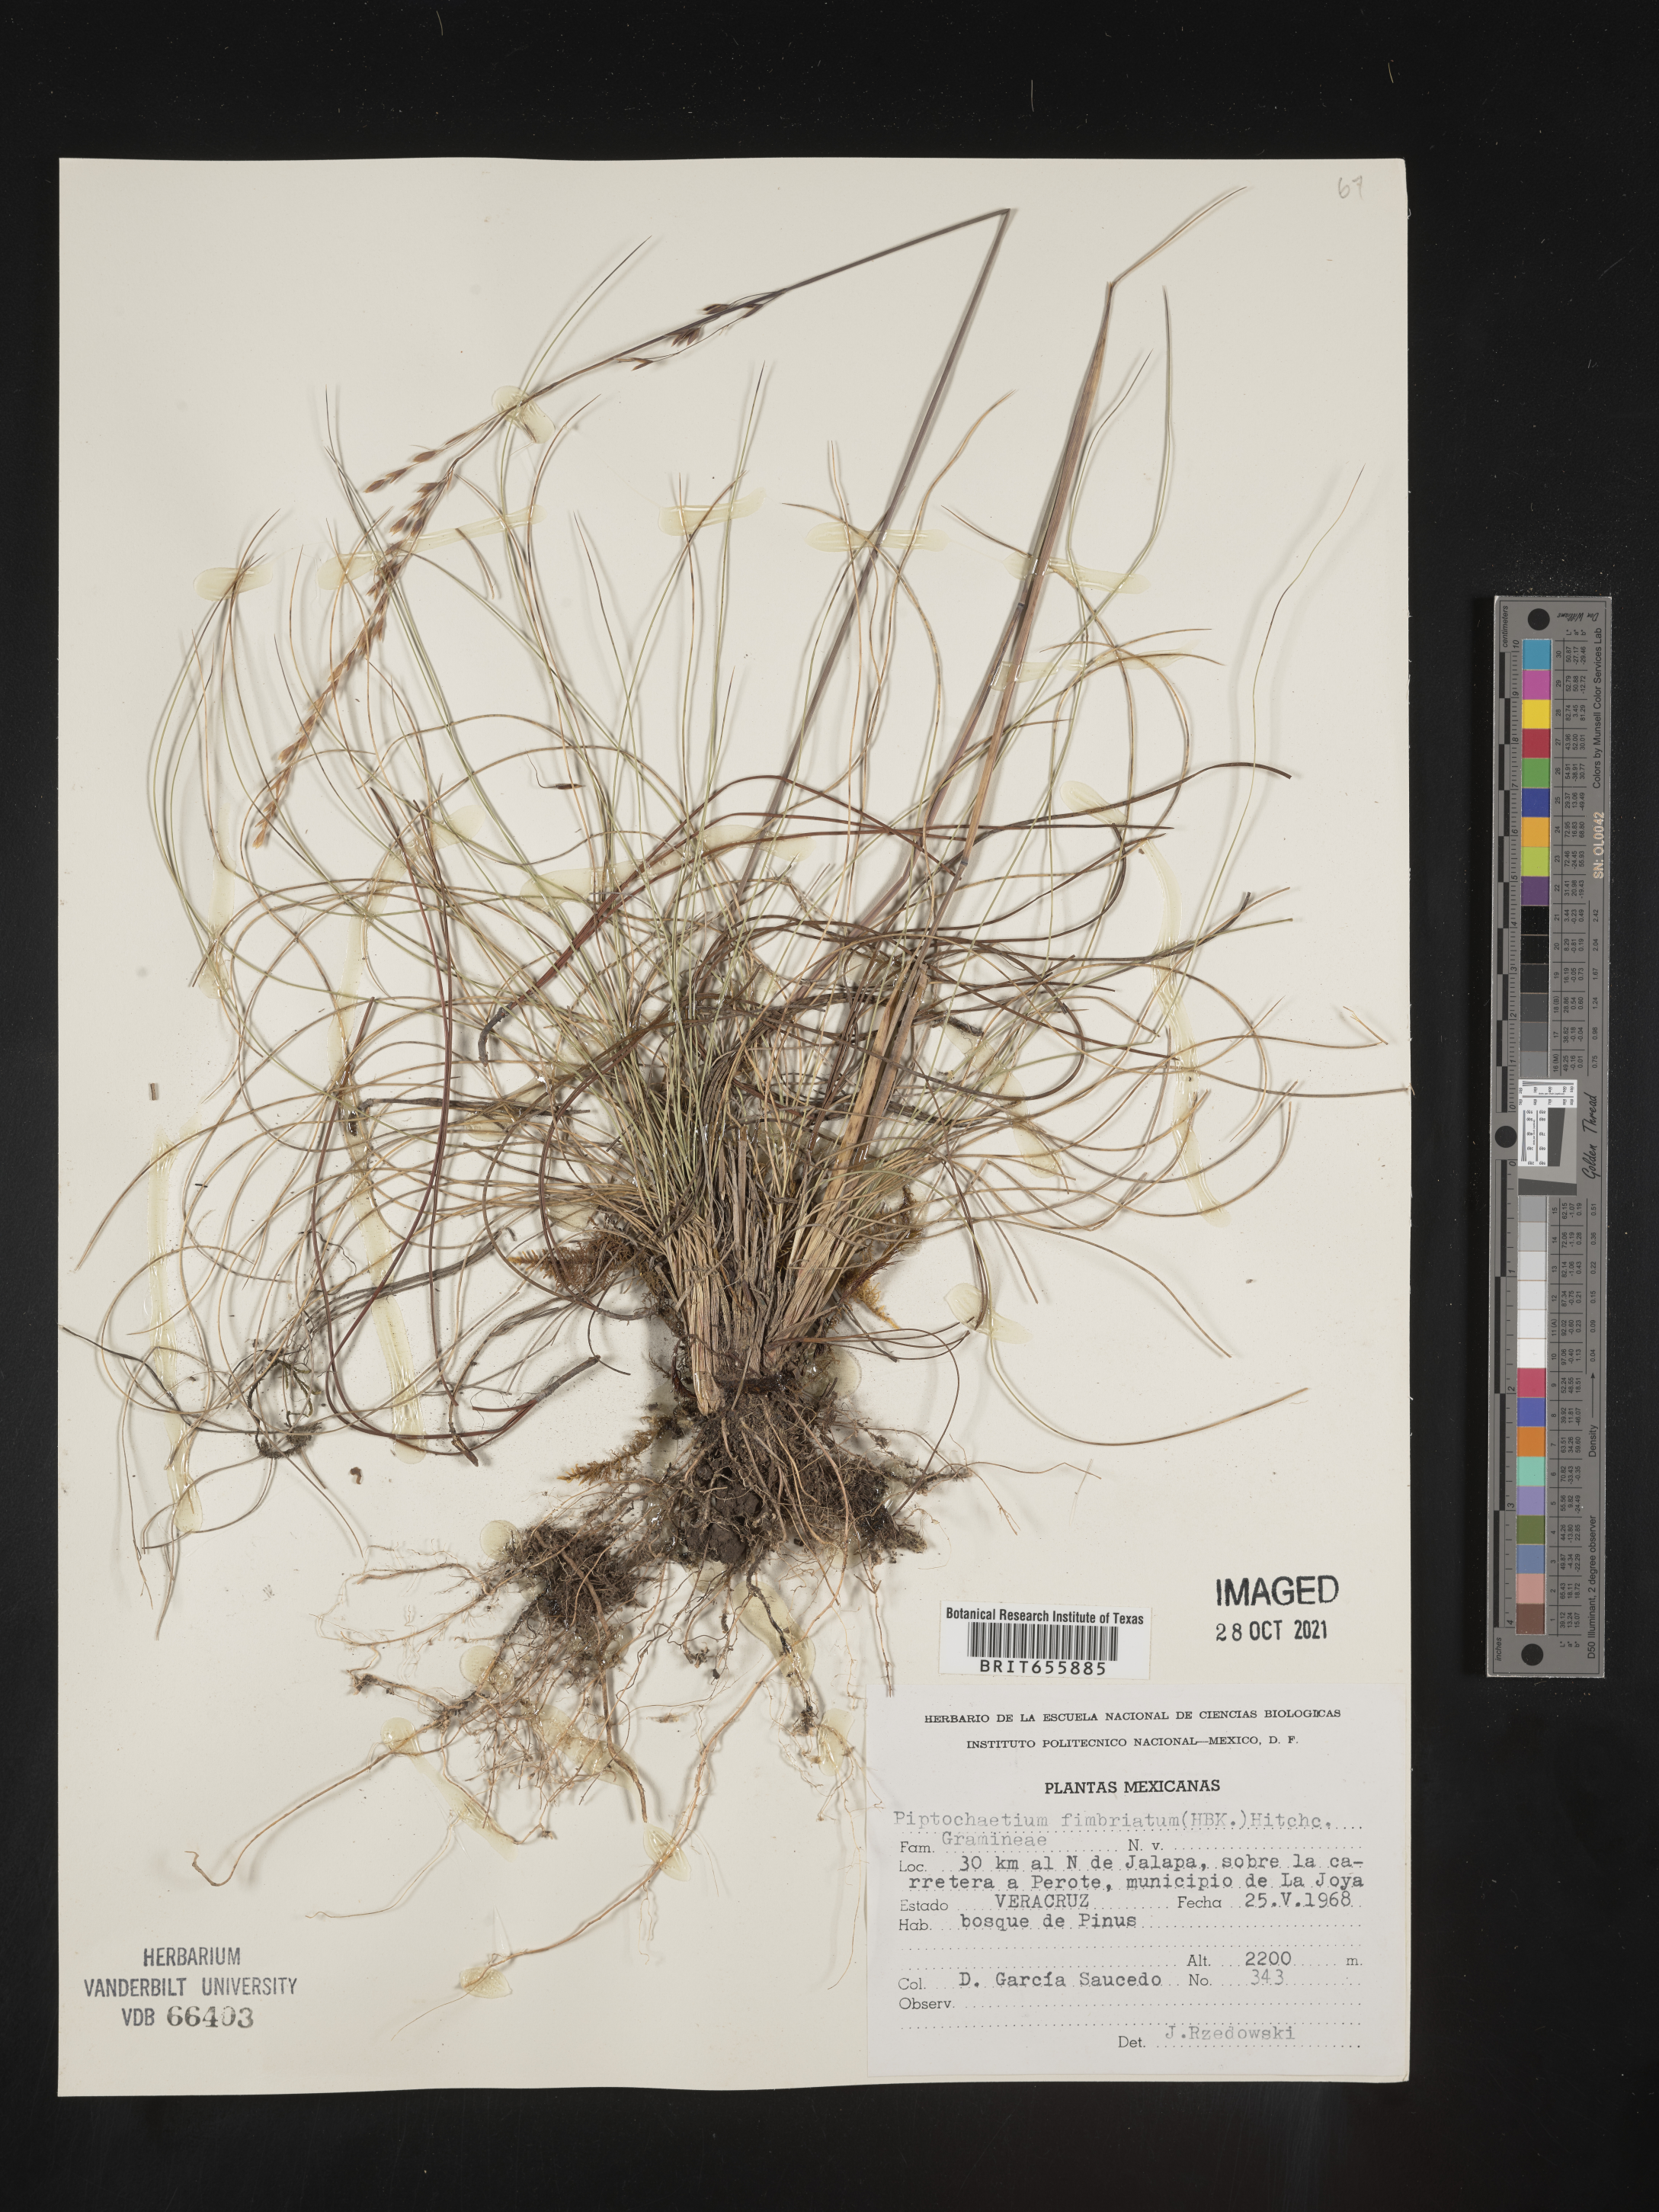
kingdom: Plantae
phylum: Tracheophyta
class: Liliopsida
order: Poales
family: Poaceae
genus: Piptochaetium
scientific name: Piptochaetium
